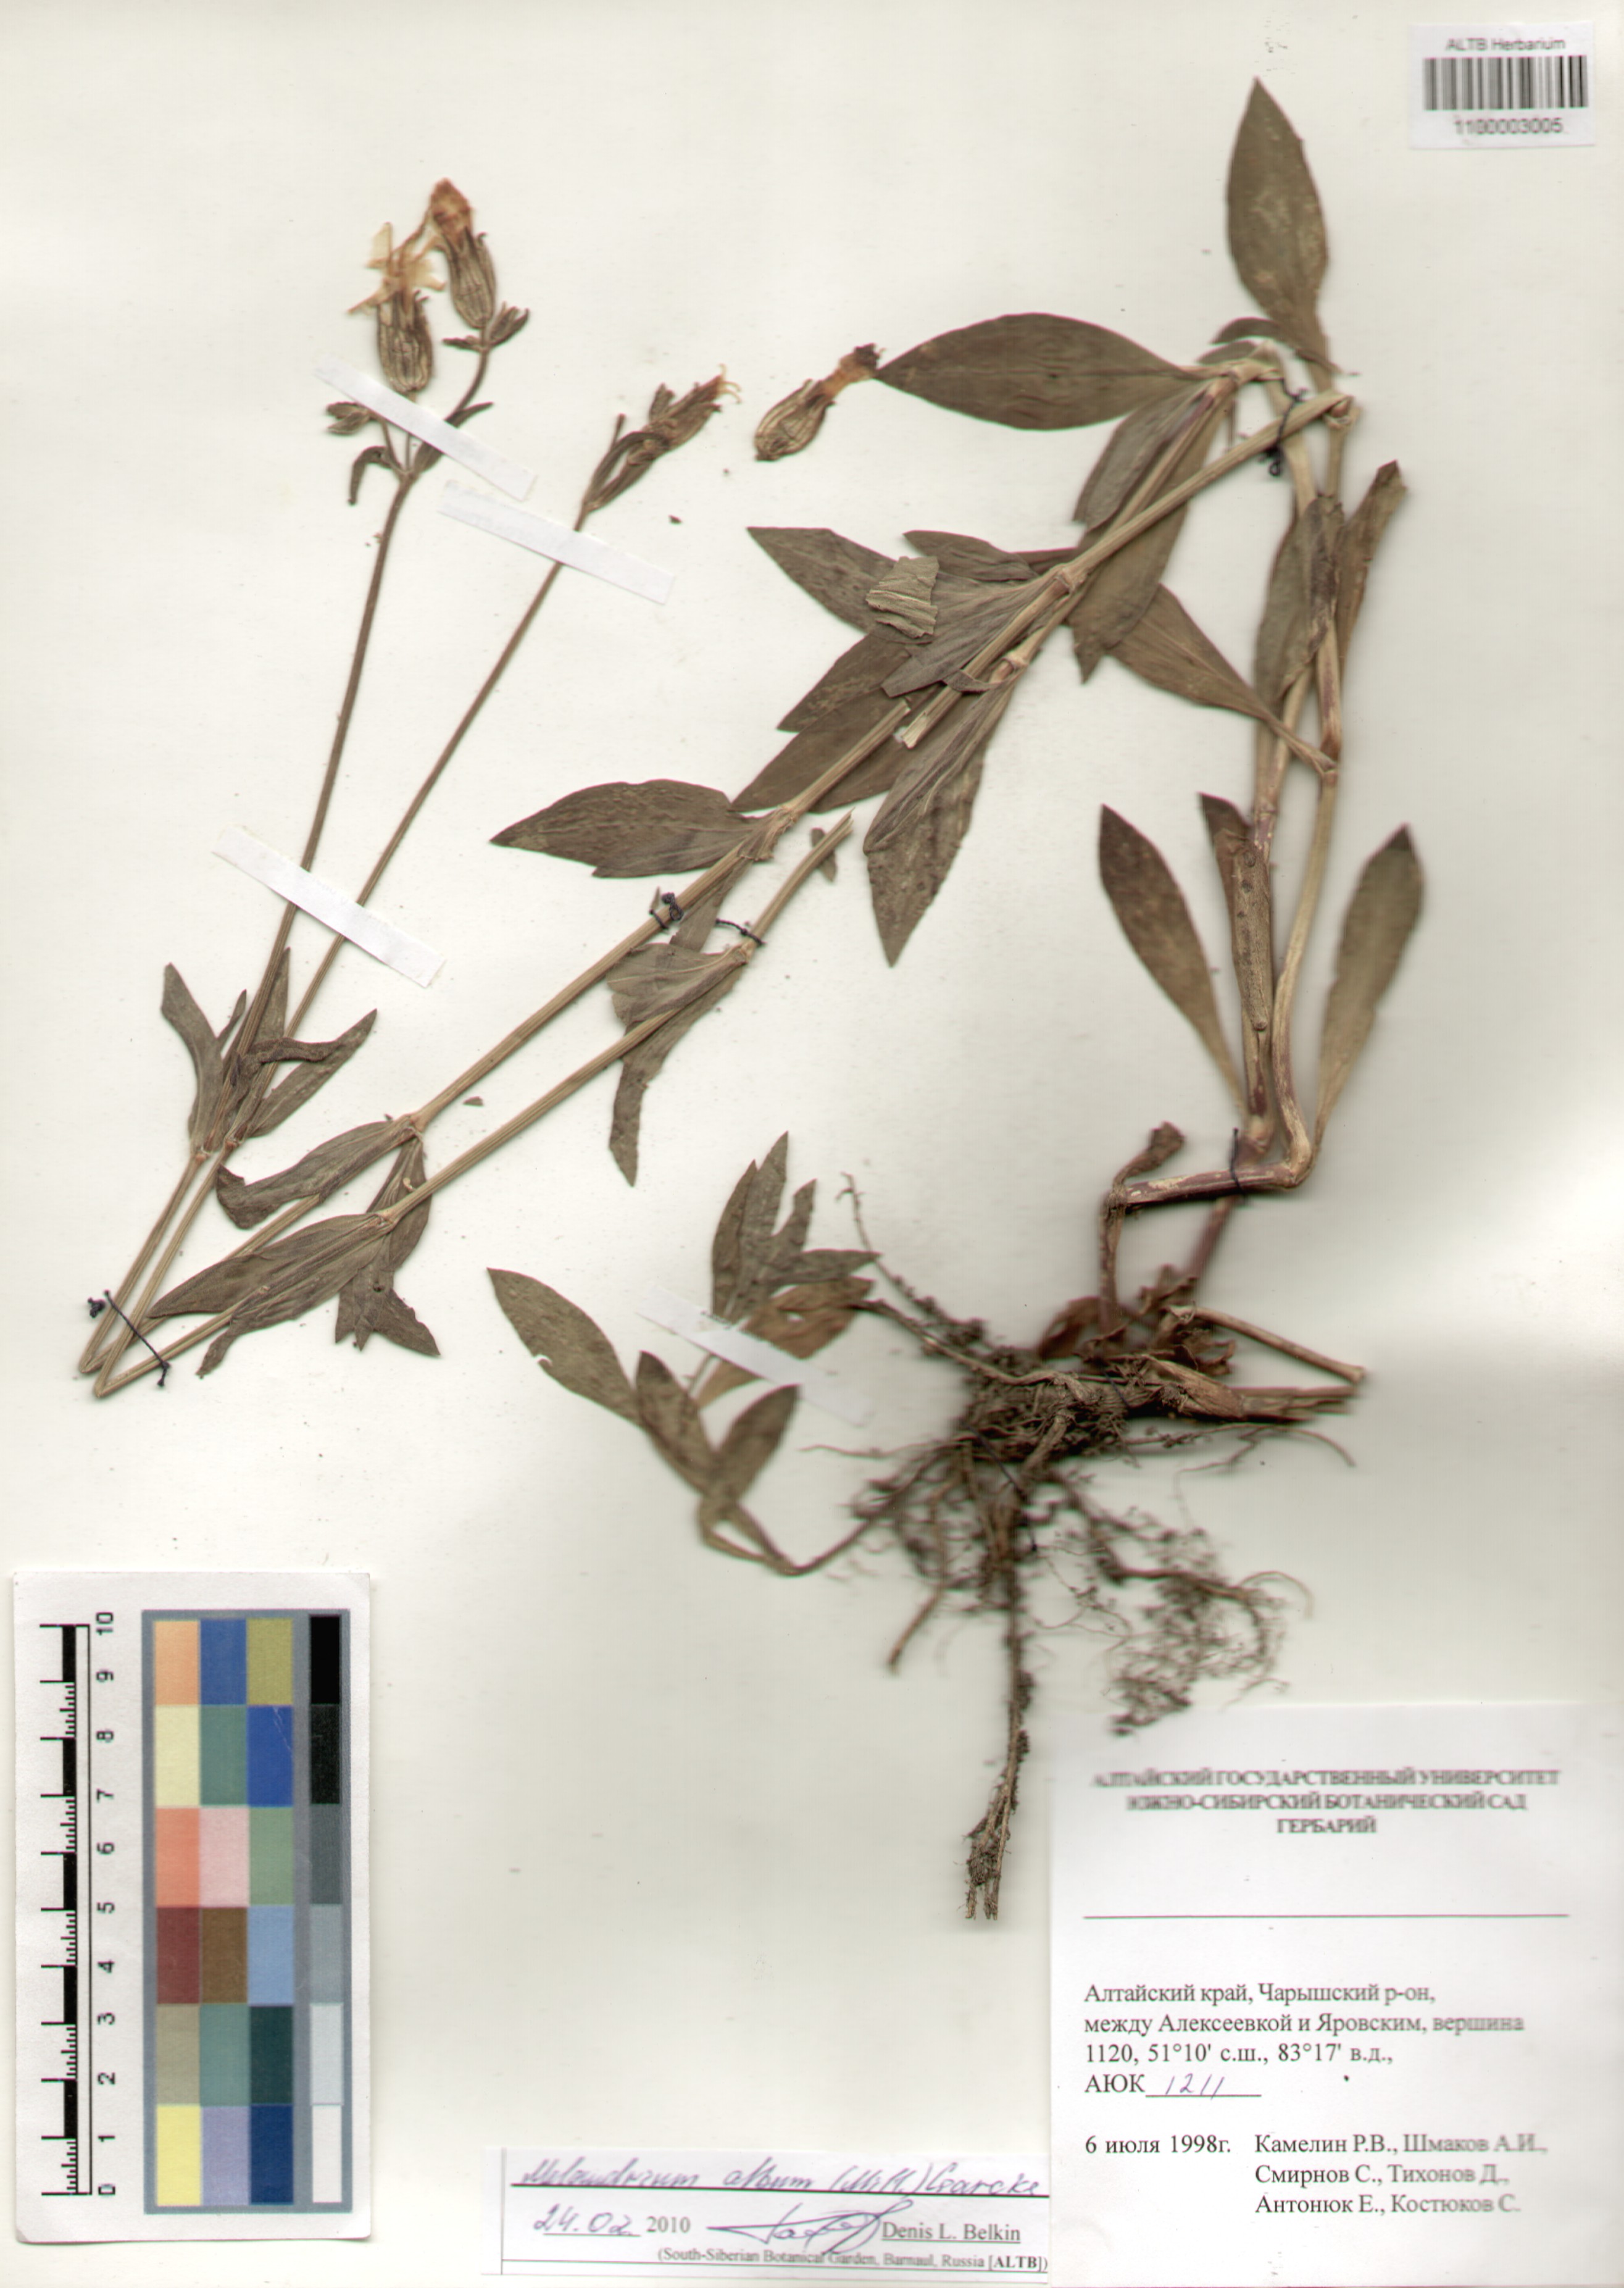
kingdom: Plantae
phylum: Tracheophyta
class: Magnoliopsida
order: Caryophyllales
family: Caryophyllaceae
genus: Silene
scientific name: Silene latifolia
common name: White campion
